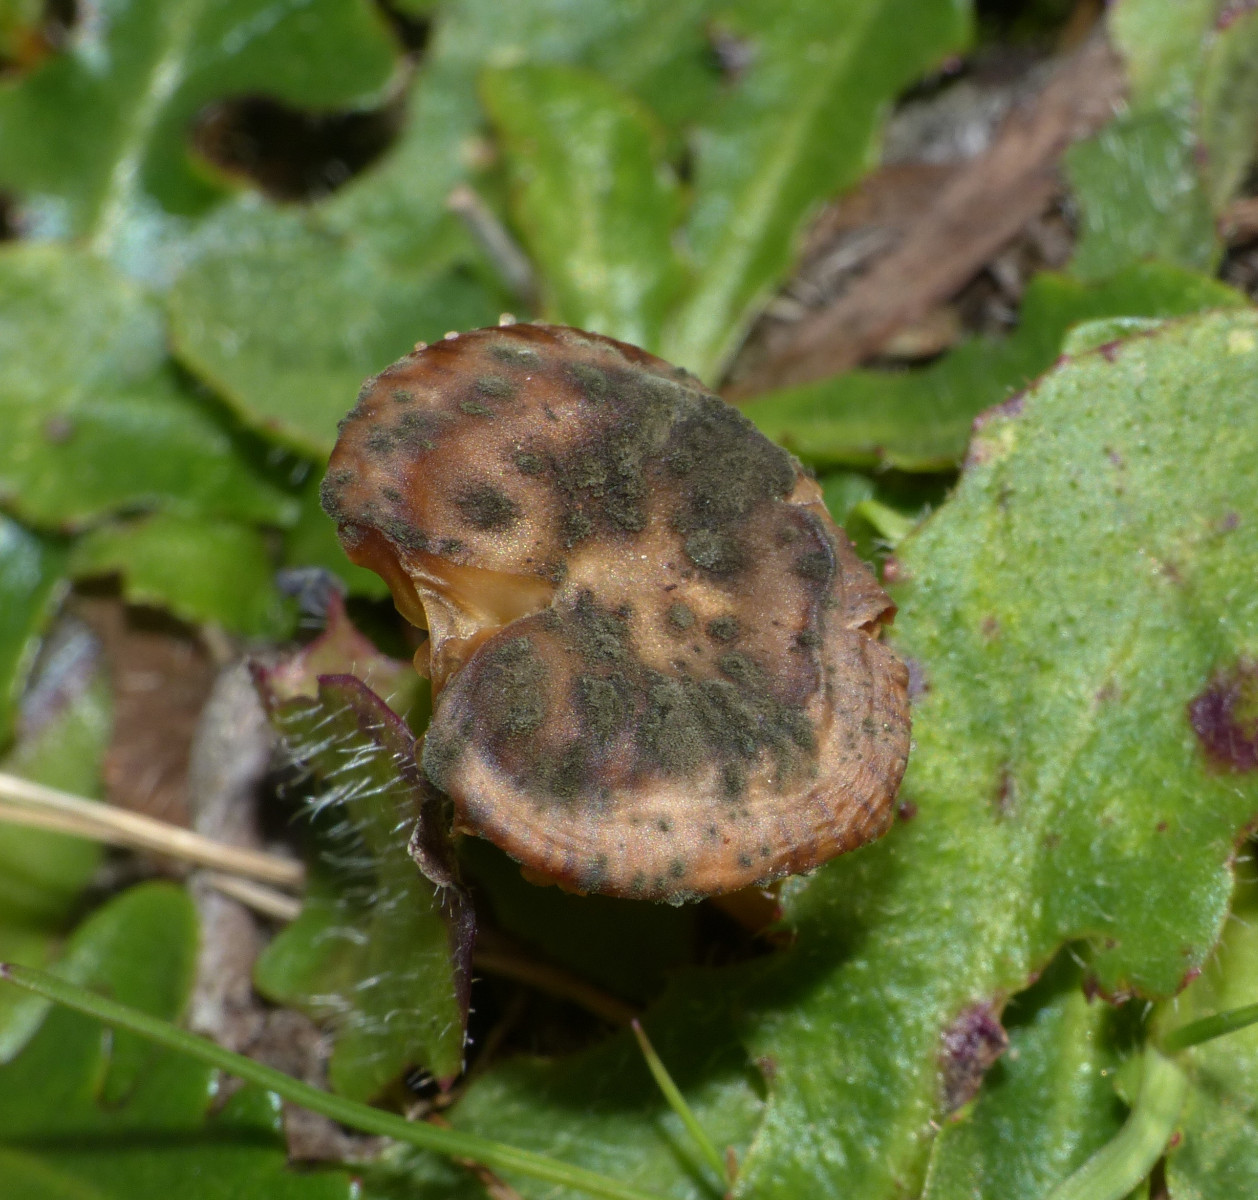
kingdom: Fungi
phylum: Ascomycota
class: Dothideomycetes
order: Capnodiales
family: Cladosporiaceae
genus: Cladosporium
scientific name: Cladosporium
